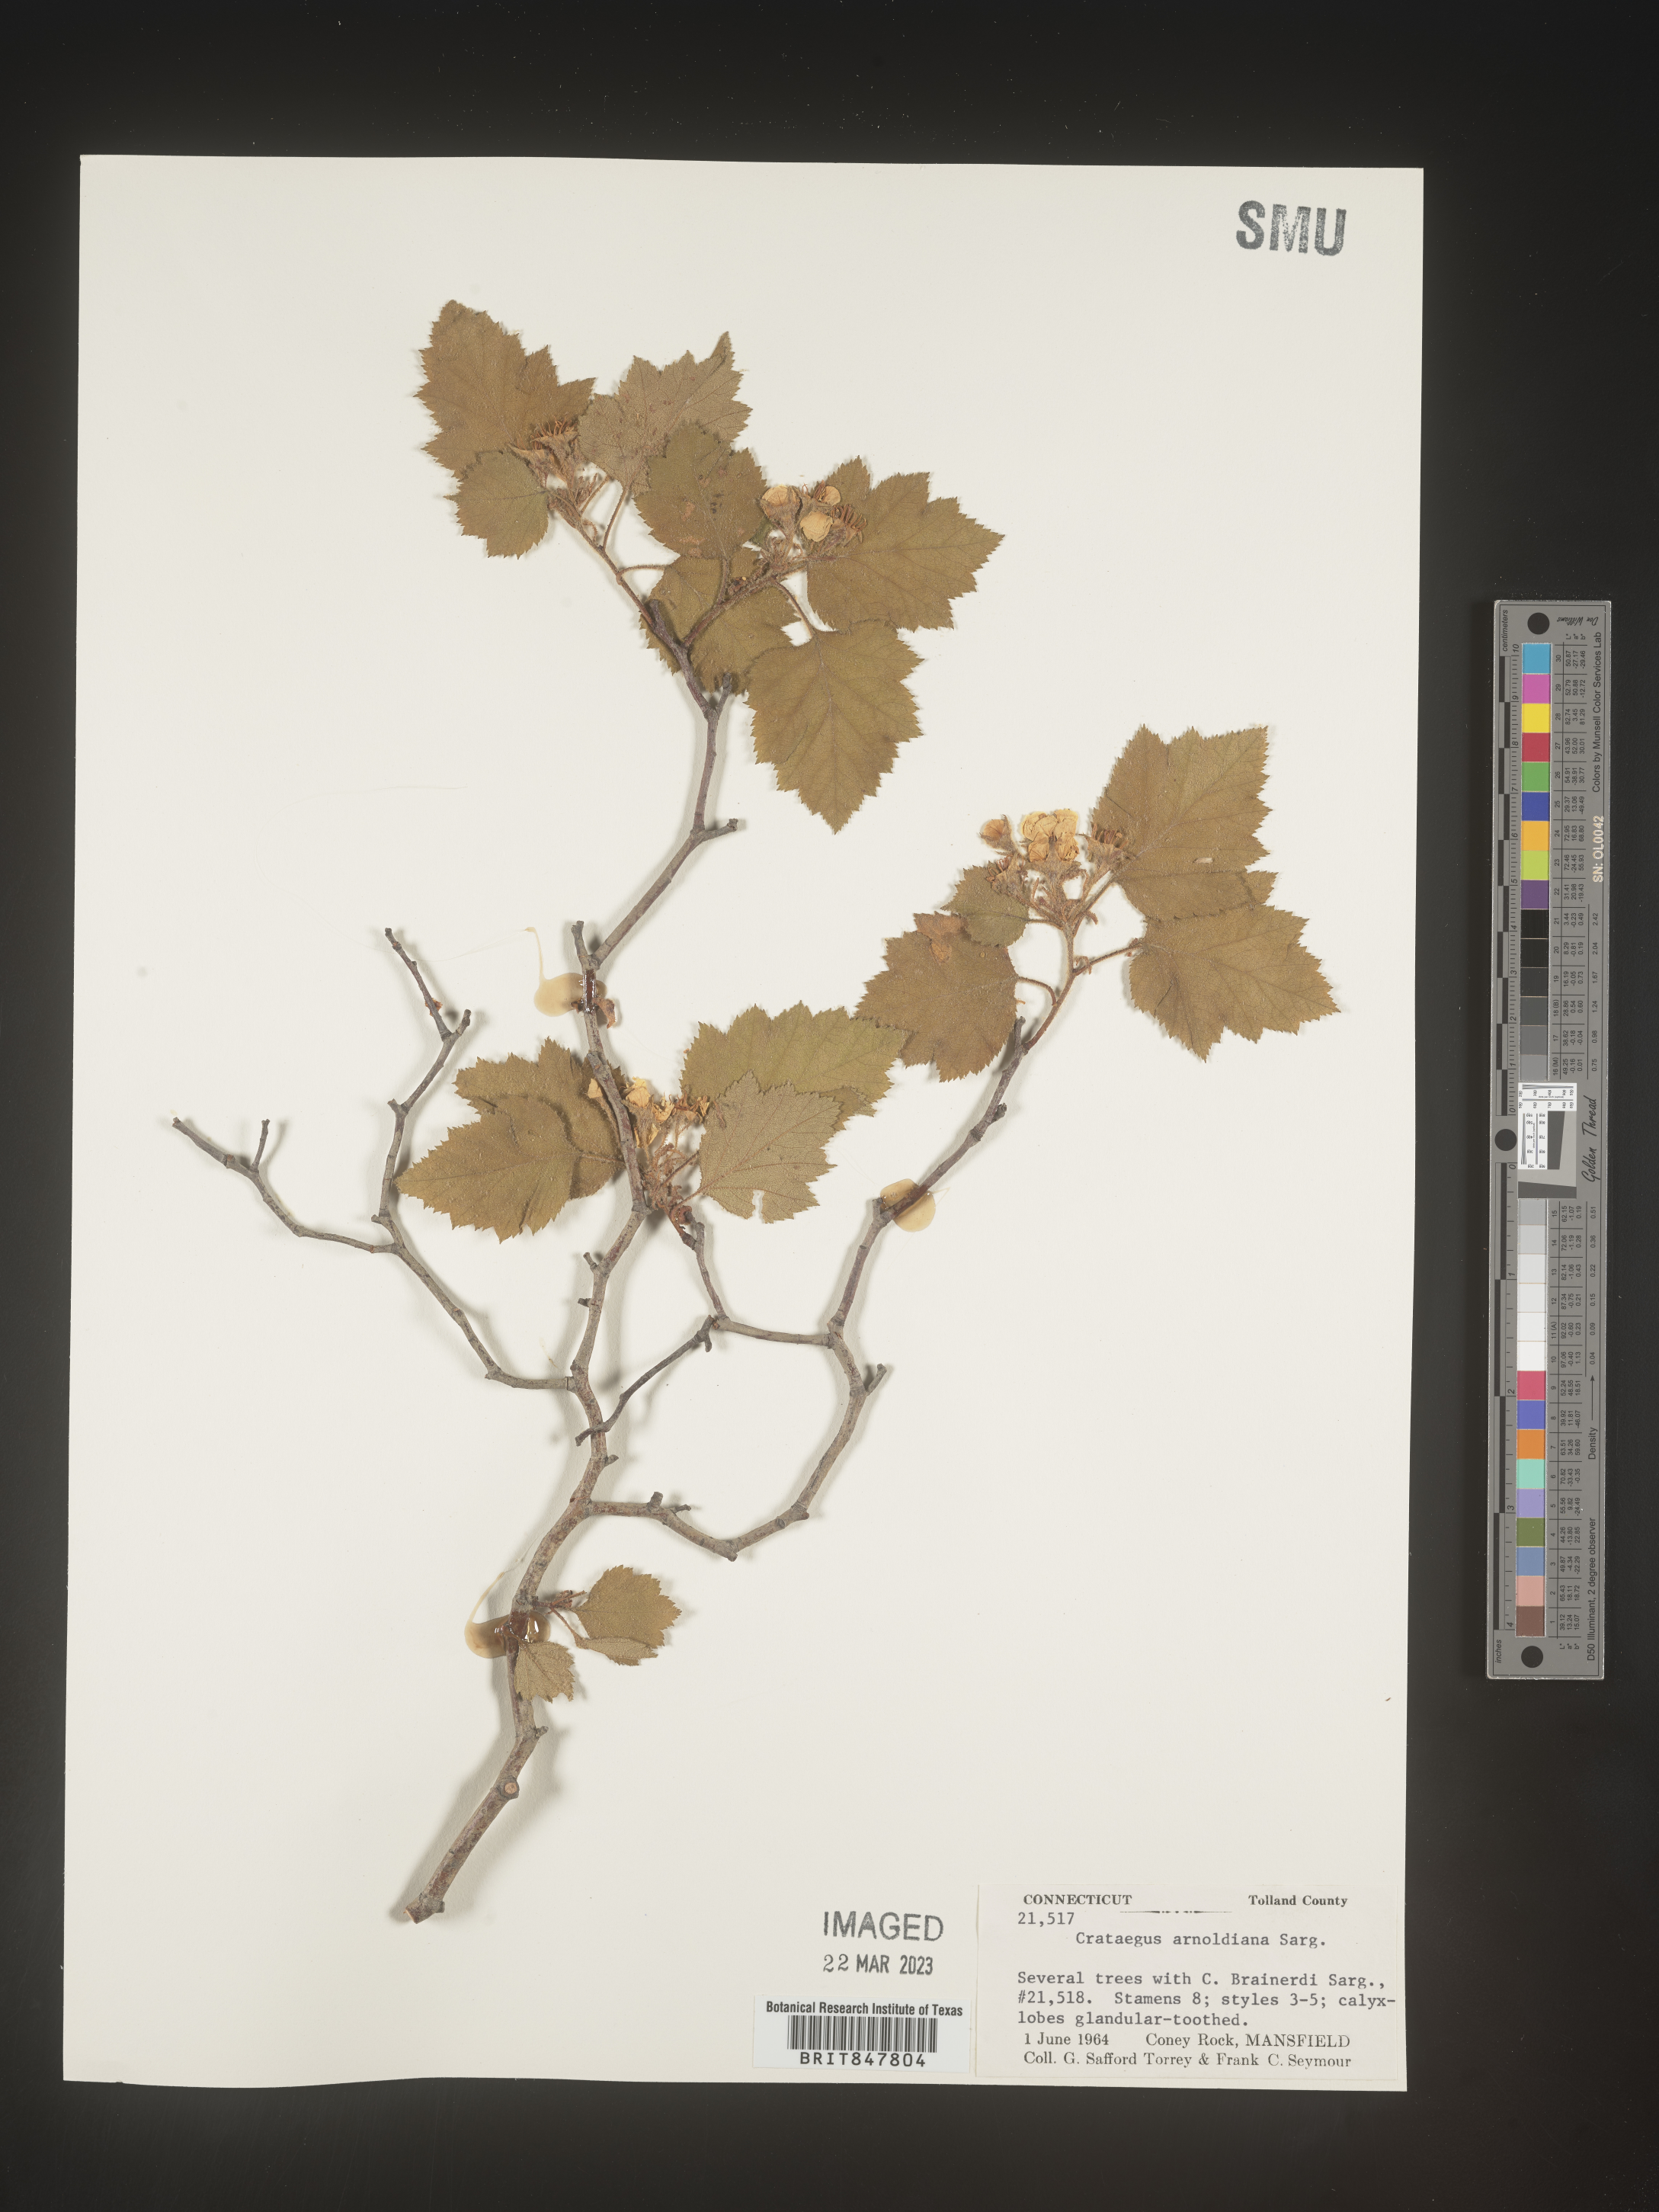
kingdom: Plantae
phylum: Tracheophyta
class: Magnoliopsida
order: Rosales
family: Rosaceae
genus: Crataegus
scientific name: Crataegus
